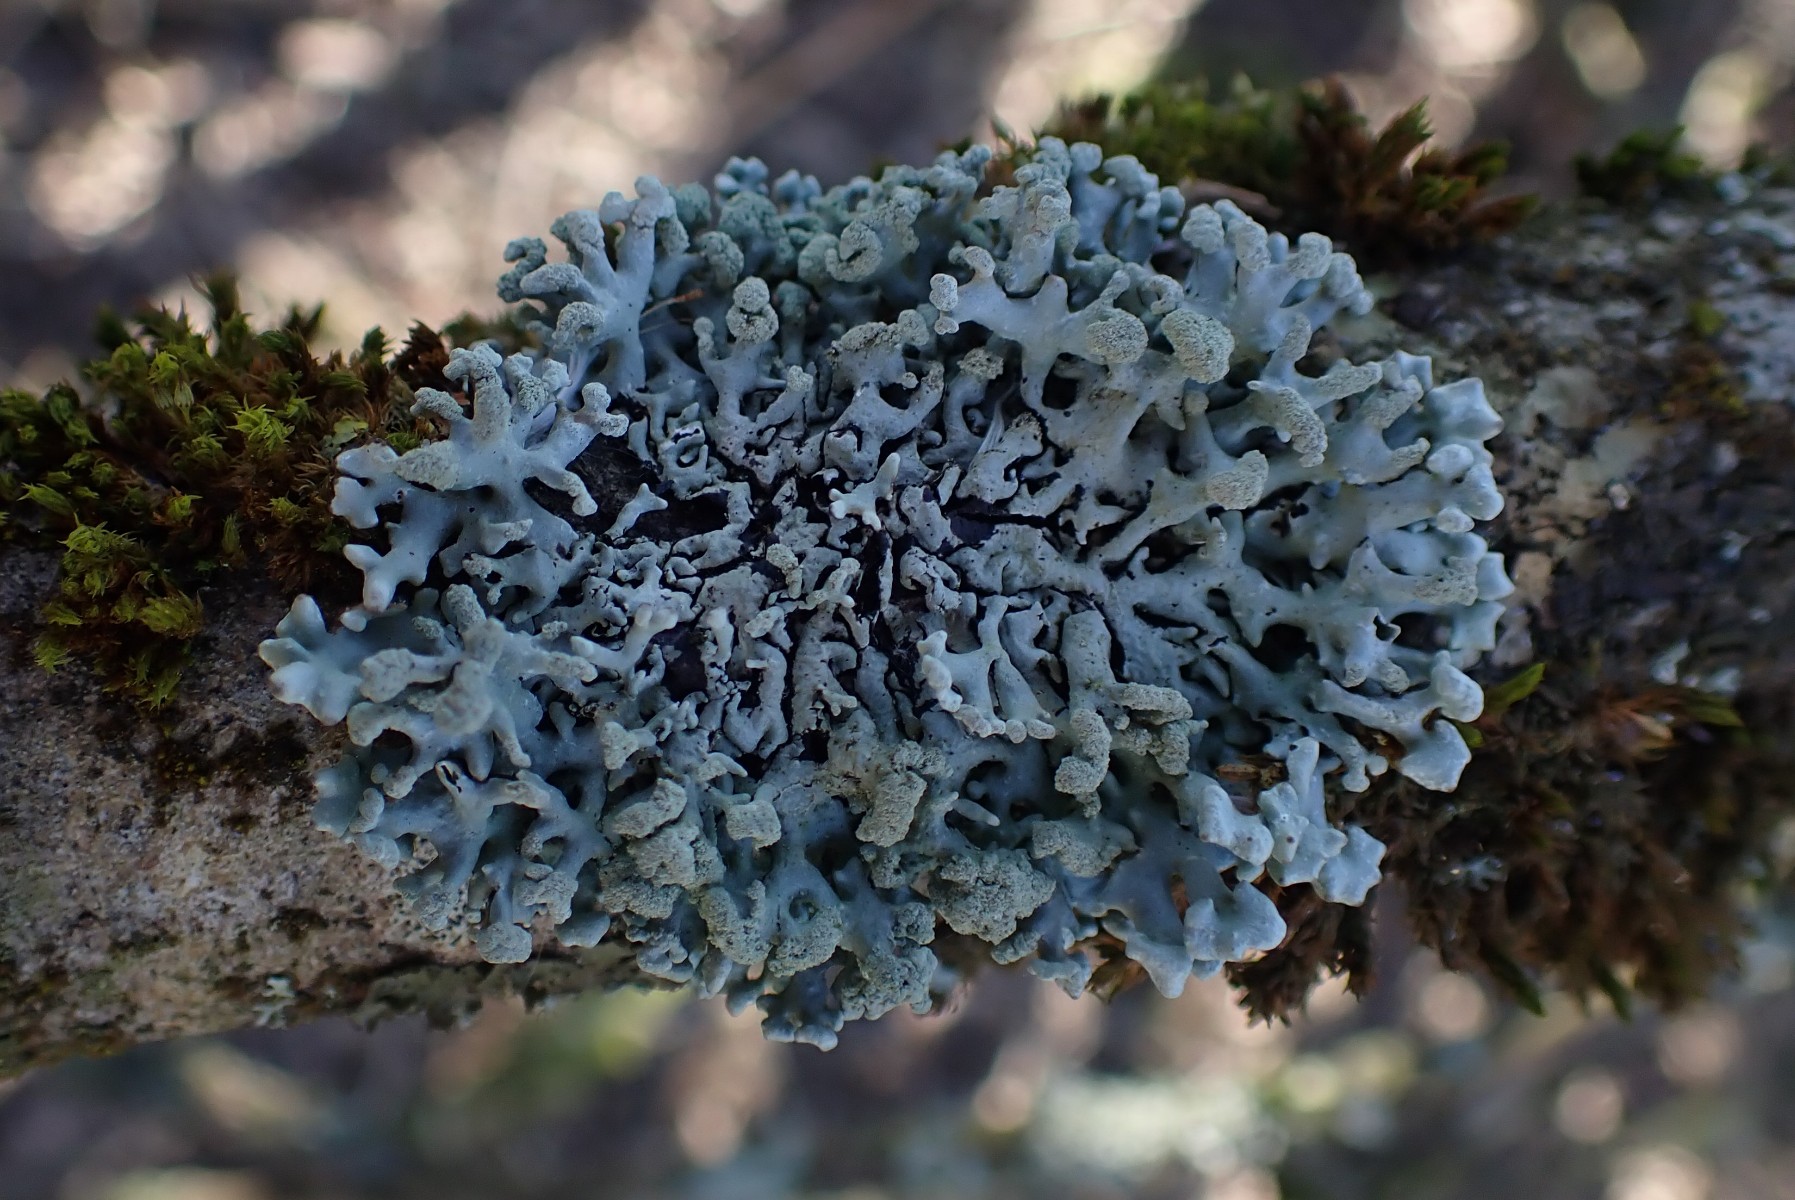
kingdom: Fungi
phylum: Ascomycota
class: Lecanoromycetes
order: Lecanorales
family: Parmeliaceae
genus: Hypogymnia
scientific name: Hypogymnia tubulosa
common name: finger-kvistlav
